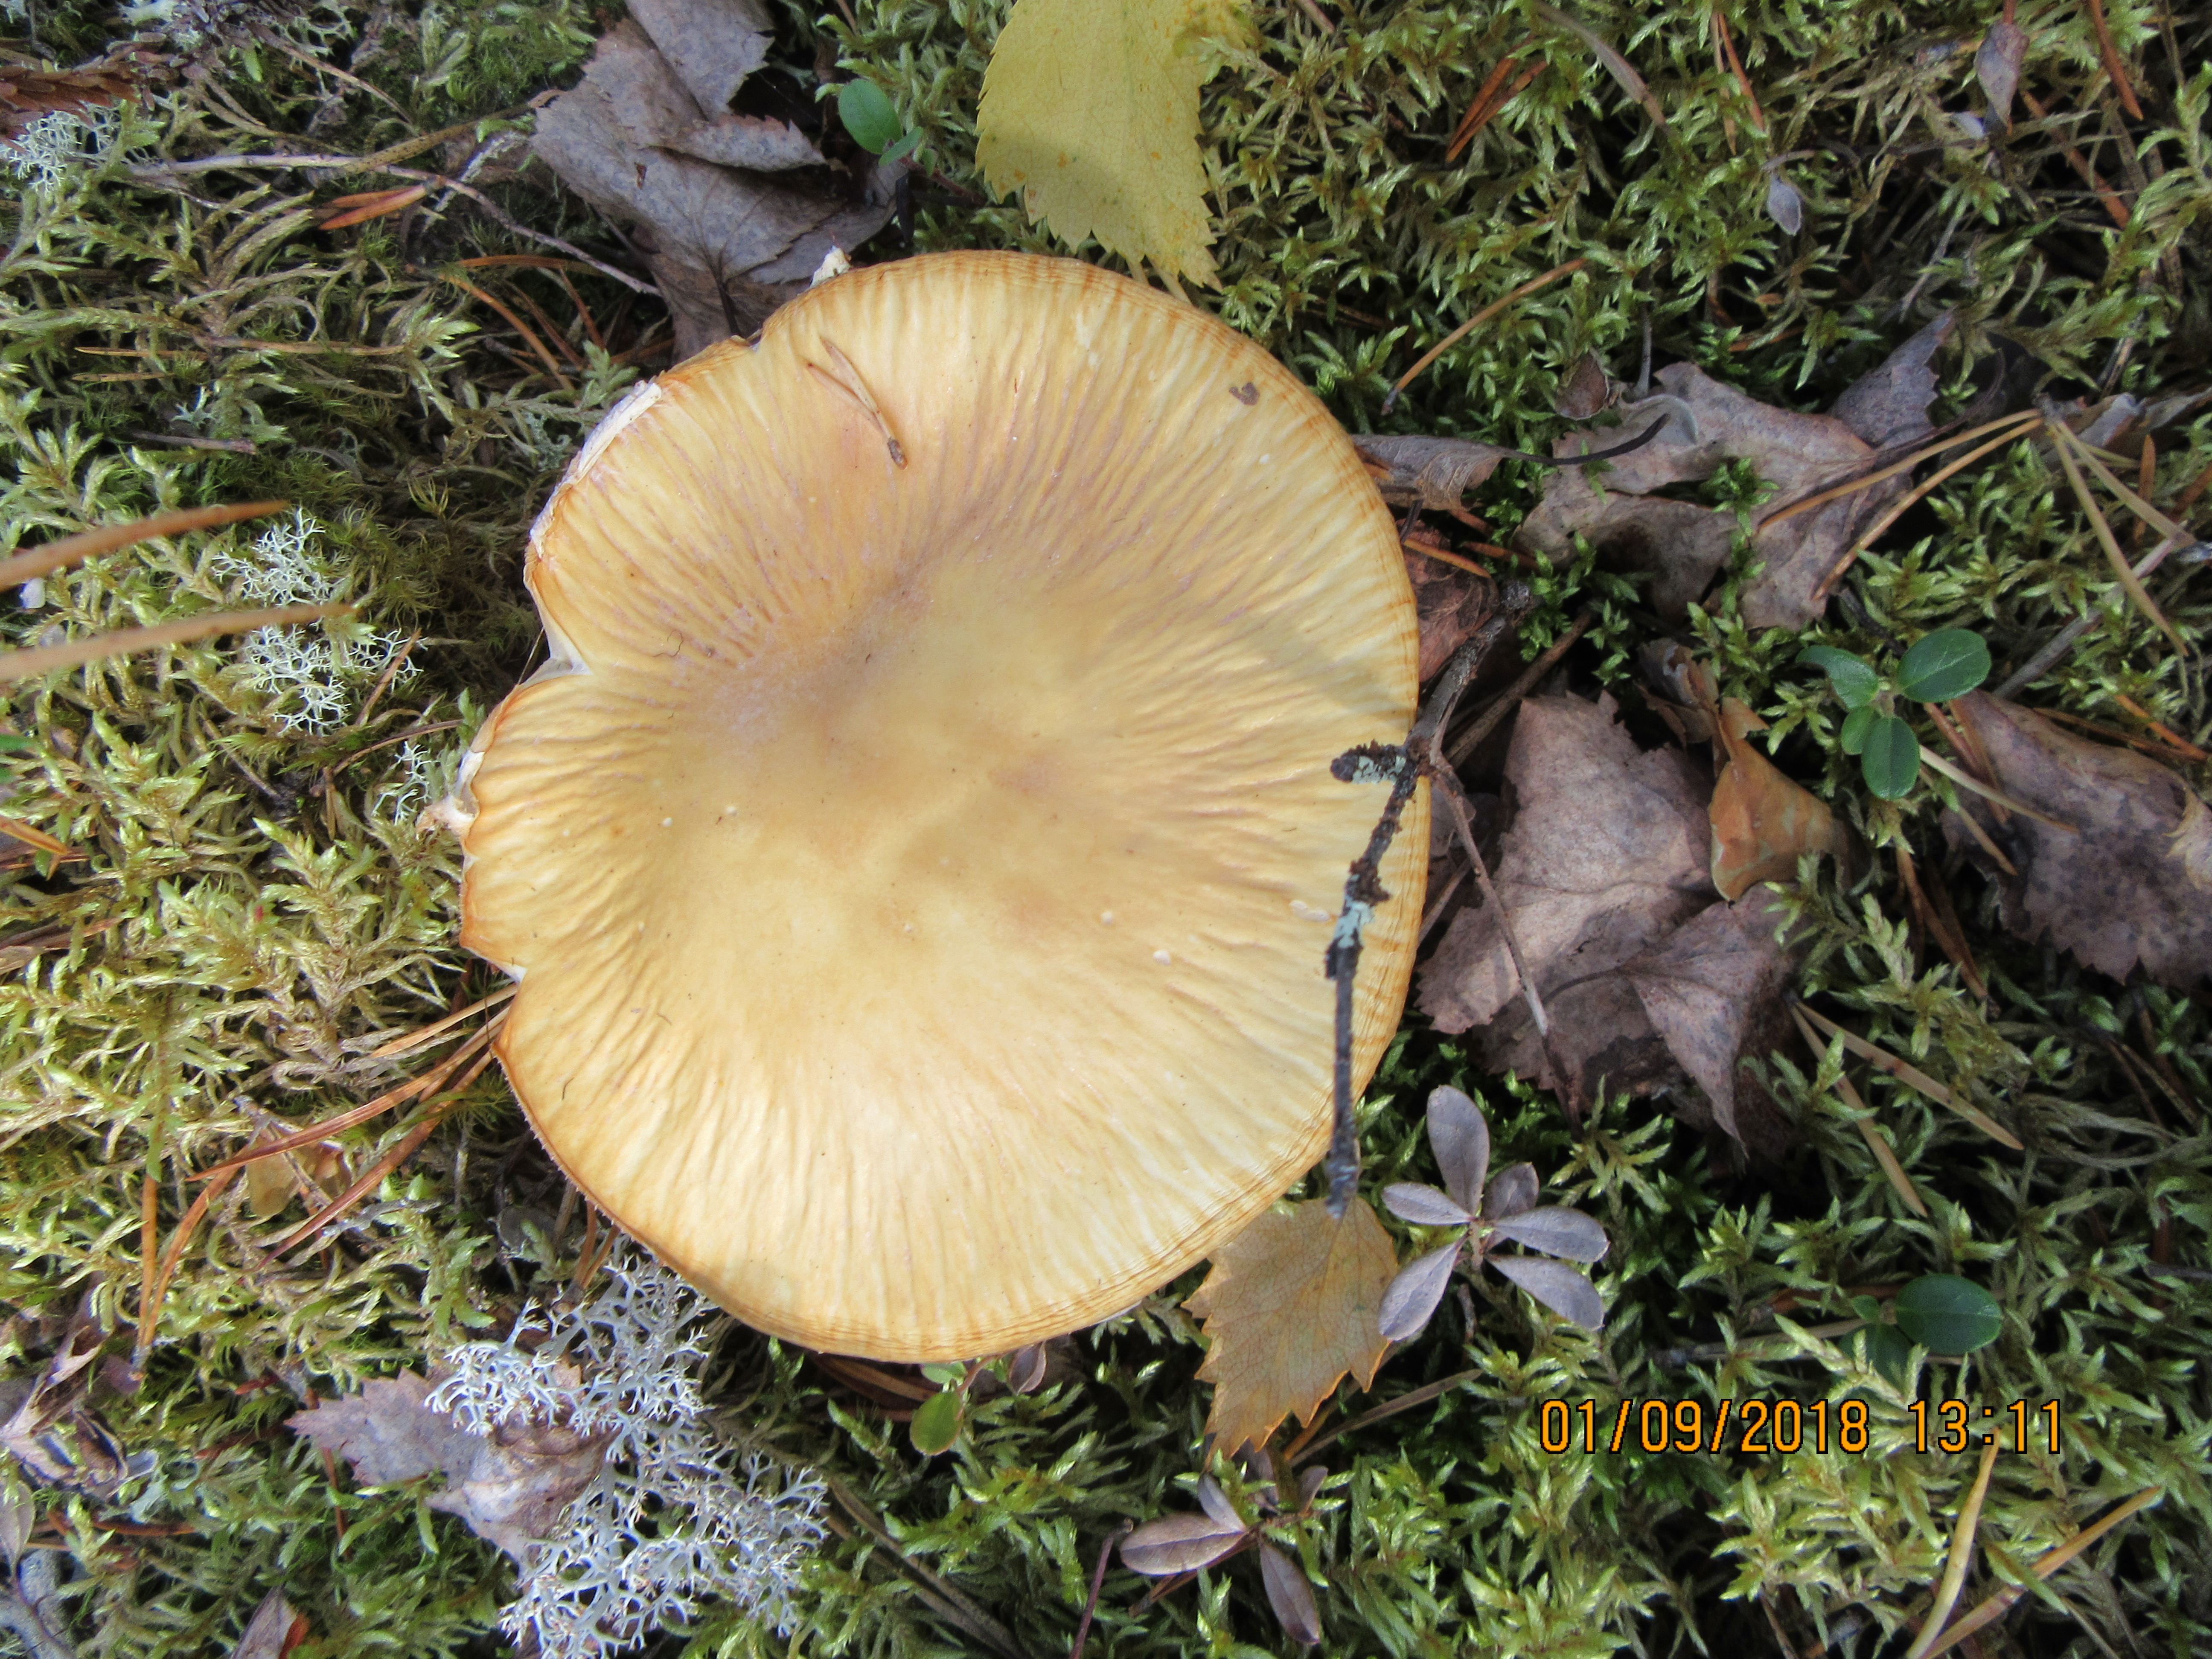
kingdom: Fungi
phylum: Basidiomycota
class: Agaricomycetes
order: Agaricales
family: Cortinariaceae
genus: Cortinarius
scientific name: Cortinarius caperatus
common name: The gypsy
